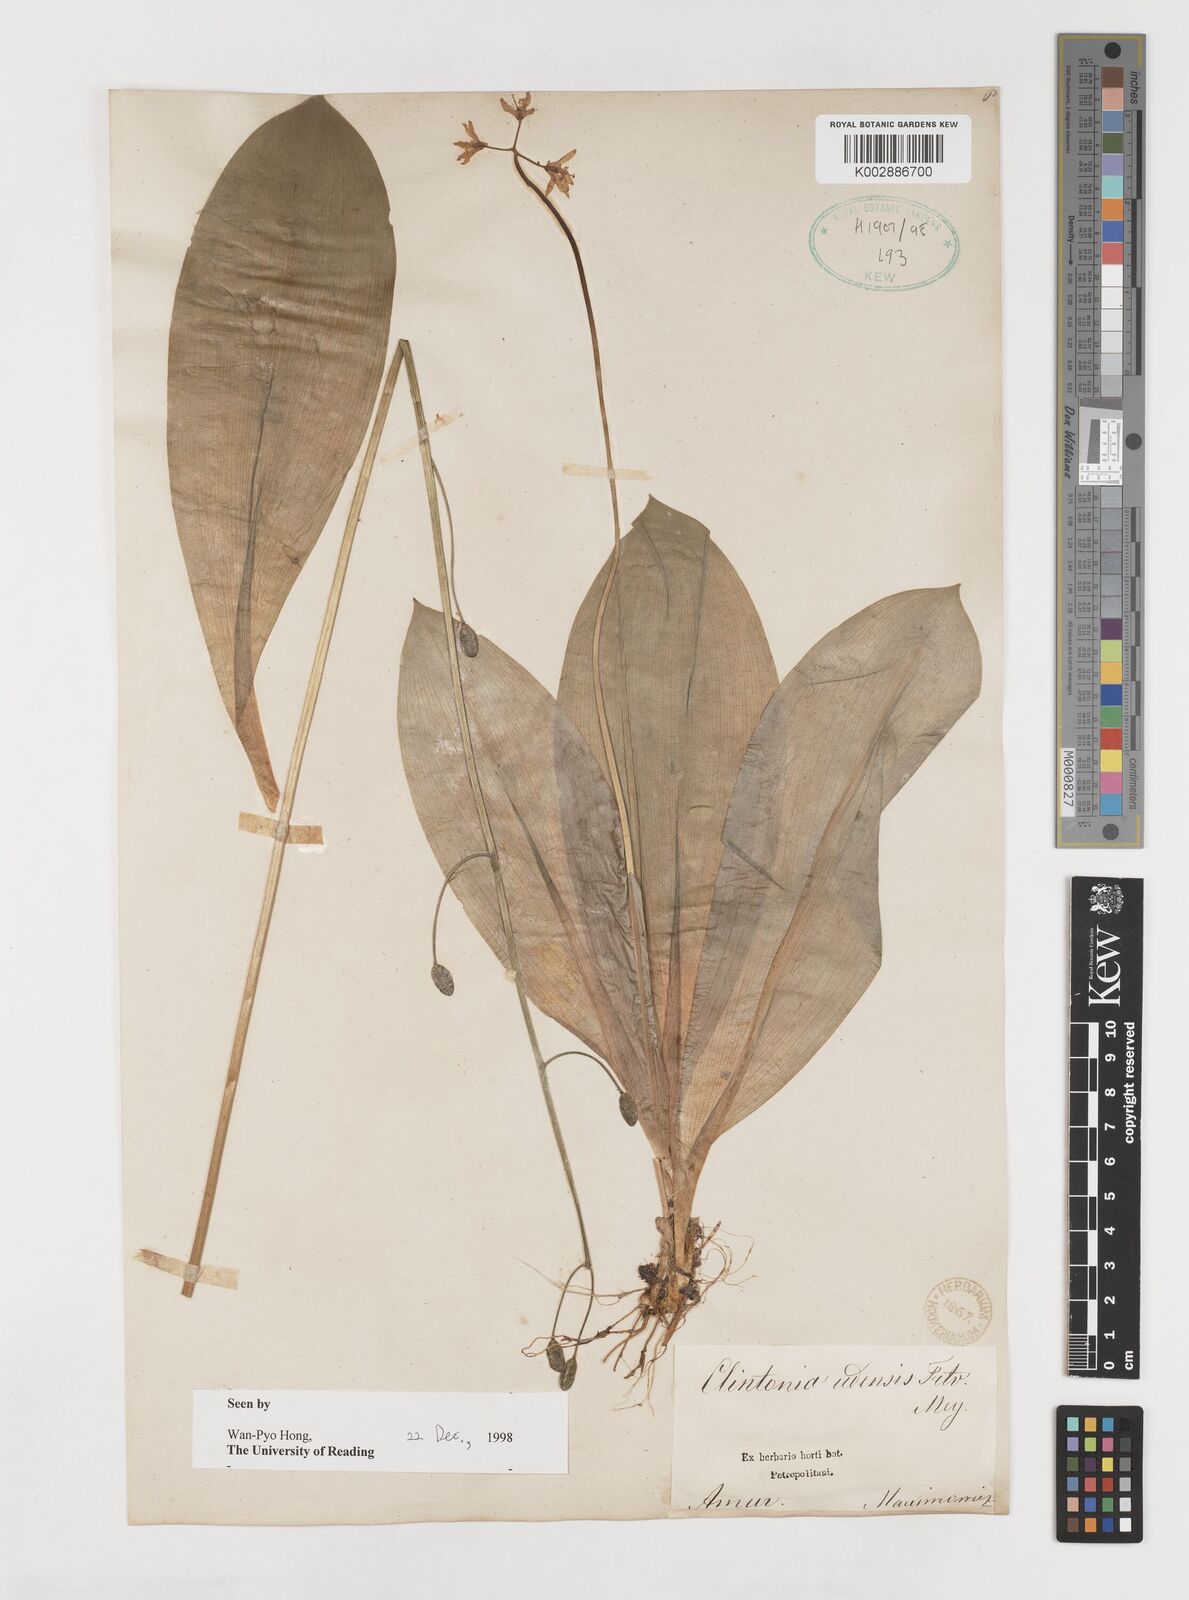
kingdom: Plantae
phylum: Tracheophyta
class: Liliopsida
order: Liliales
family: Liliaceae
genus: Clintonia
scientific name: Clintonia udensis
